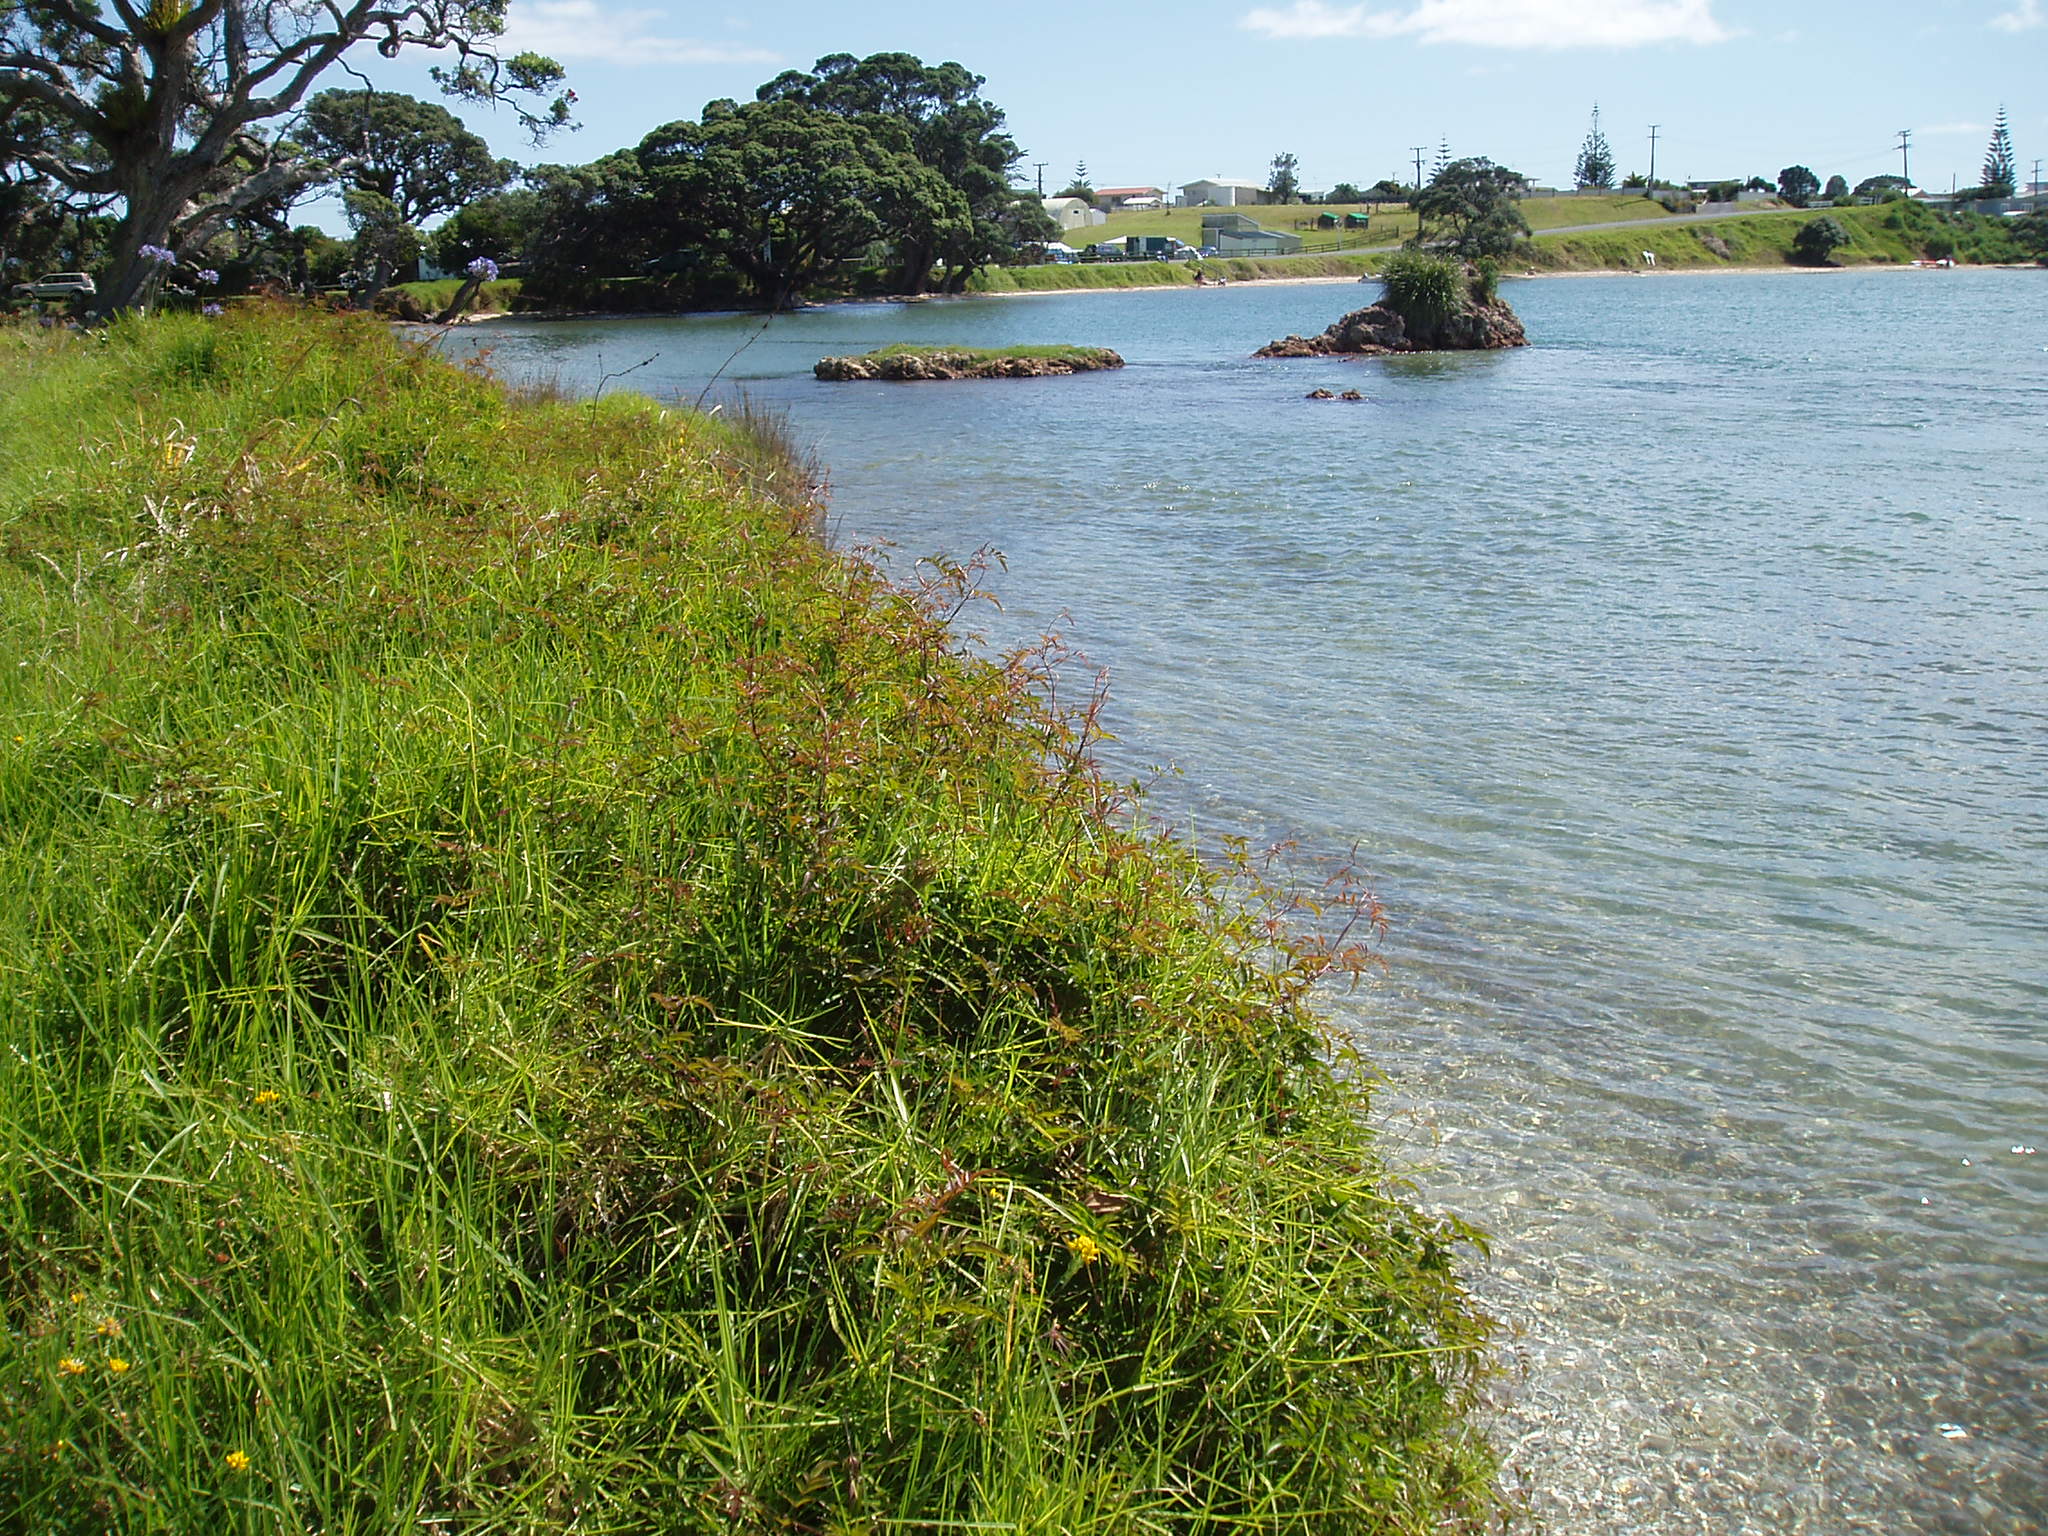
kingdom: Plantae
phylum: Tracheophyta
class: Magnoliopsida
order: Lamiales
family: Oleaceae
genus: Jasminum
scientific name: Jasminum polyanthum
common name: Pink jasmine
